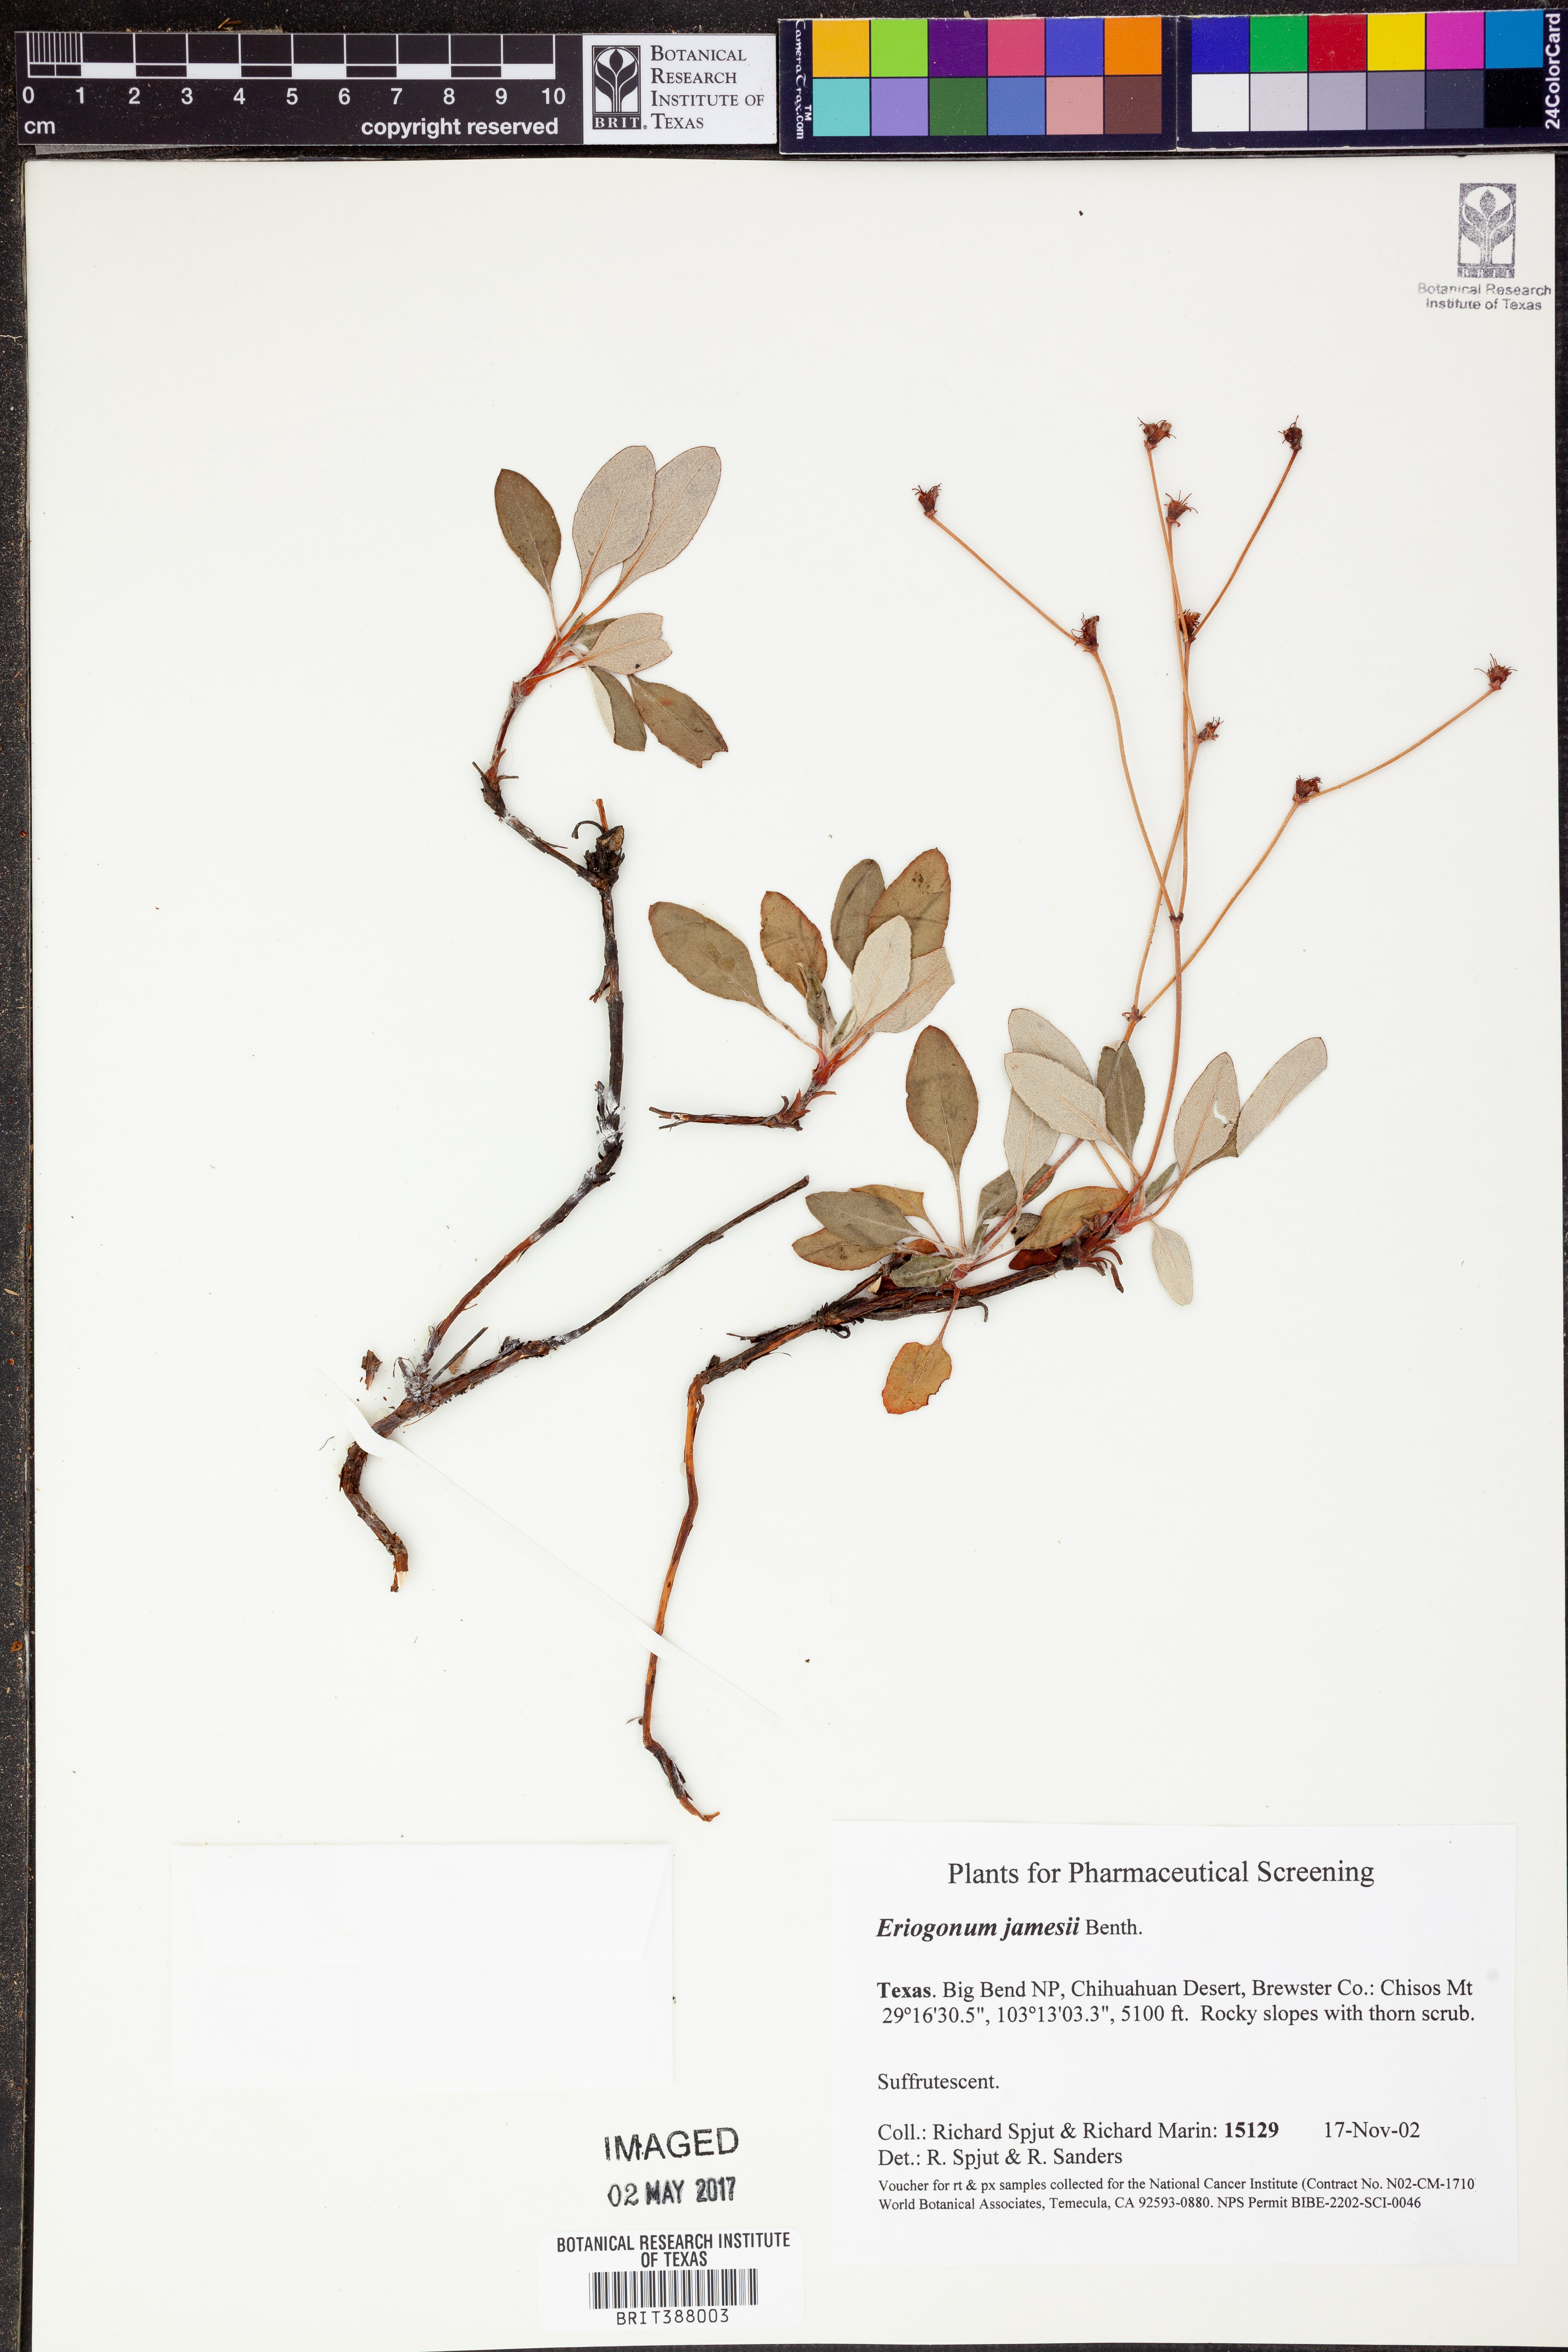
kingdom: Plantae
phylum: Tracheophyta
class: Magnoliopsida
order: Caryophyllales
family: Polygonaceae
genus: Eriogonum
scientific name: Eriogonum jamesii
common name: Antelope-sage
